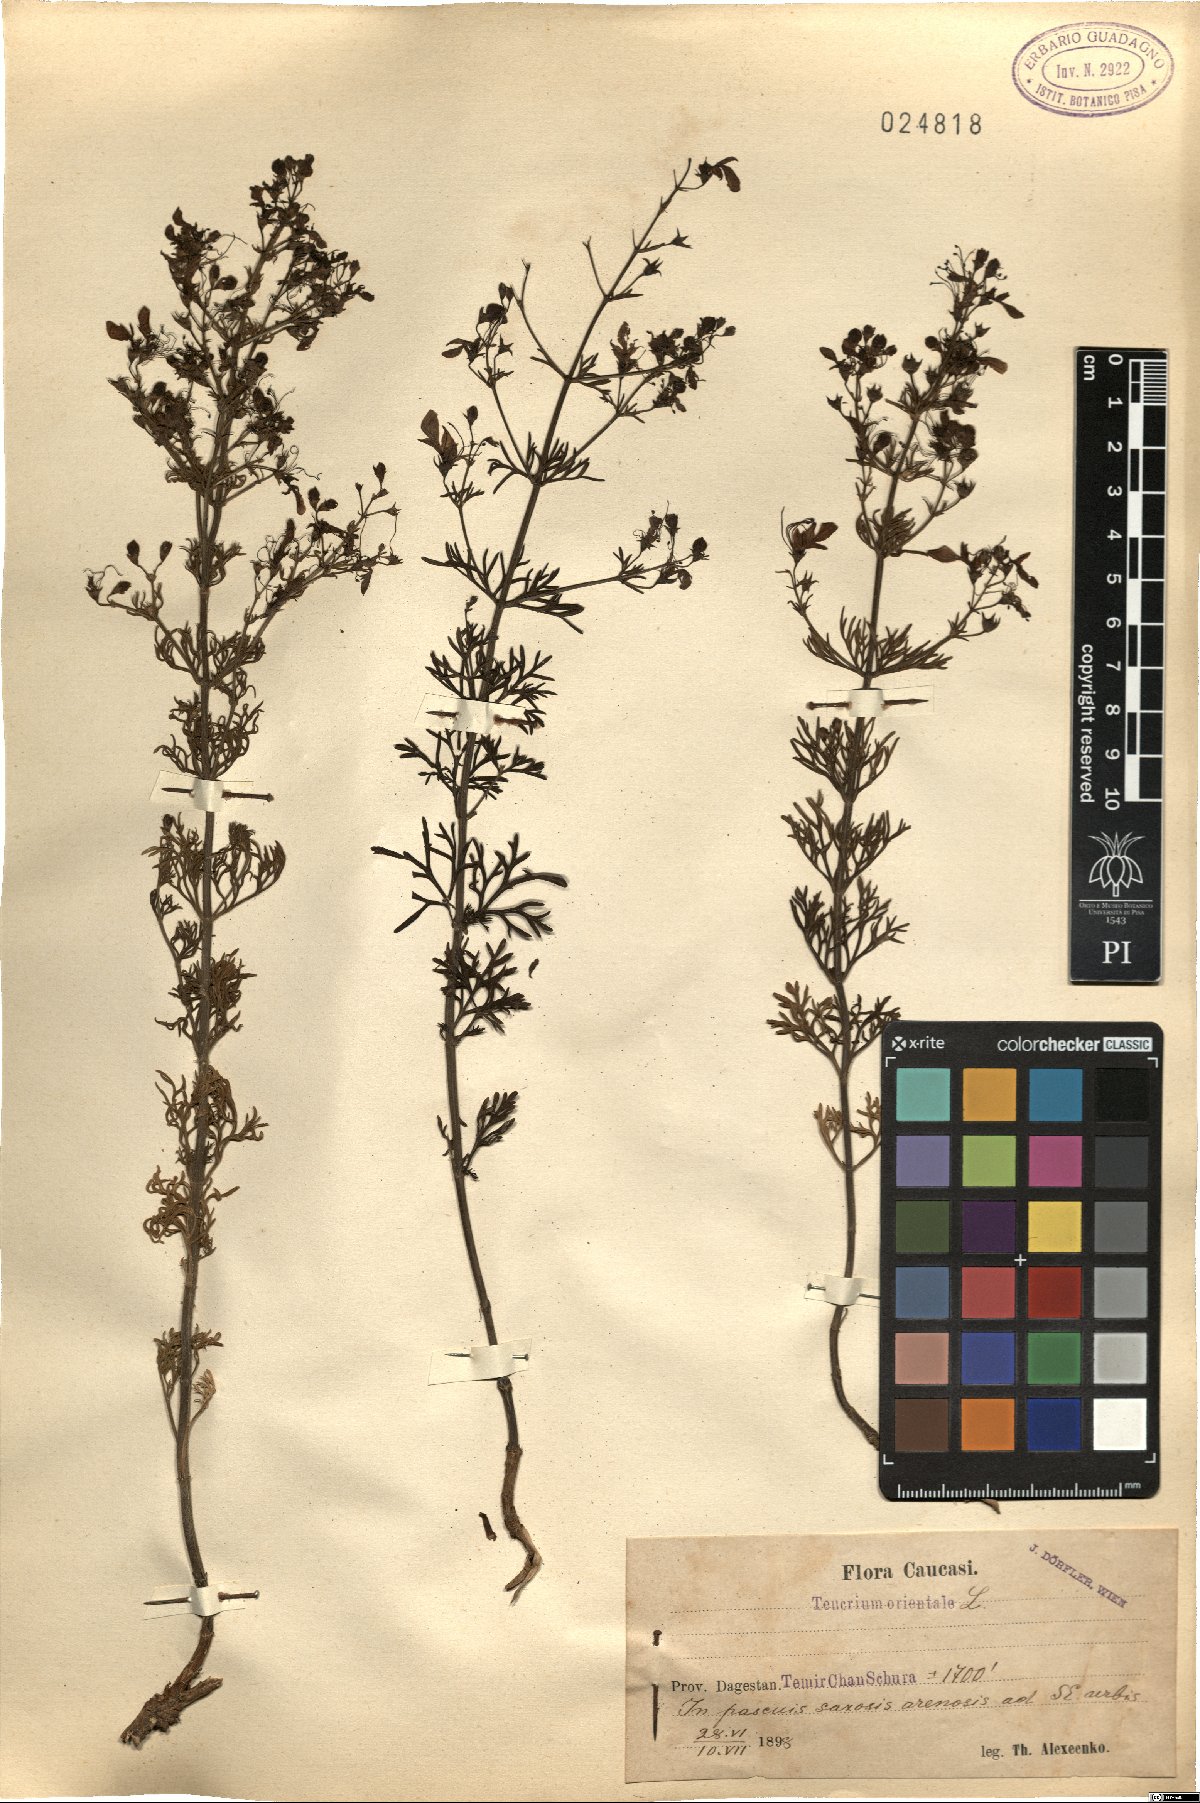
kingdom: Plantae
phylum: Tracheophyta
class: Magnoliopsida
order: Lamiales
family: Lamiaceae
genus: Teucrium
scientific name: Teucrium orientale
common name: Oriental germander
